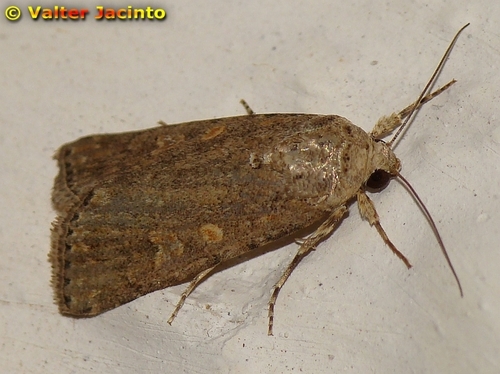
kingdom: Animalia
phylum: Arthropoda
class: Insecta
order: Lepidoptera
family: Noctuidae
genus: Spodoptera
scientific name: Spodoptera exigua
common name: Beet armyworm
